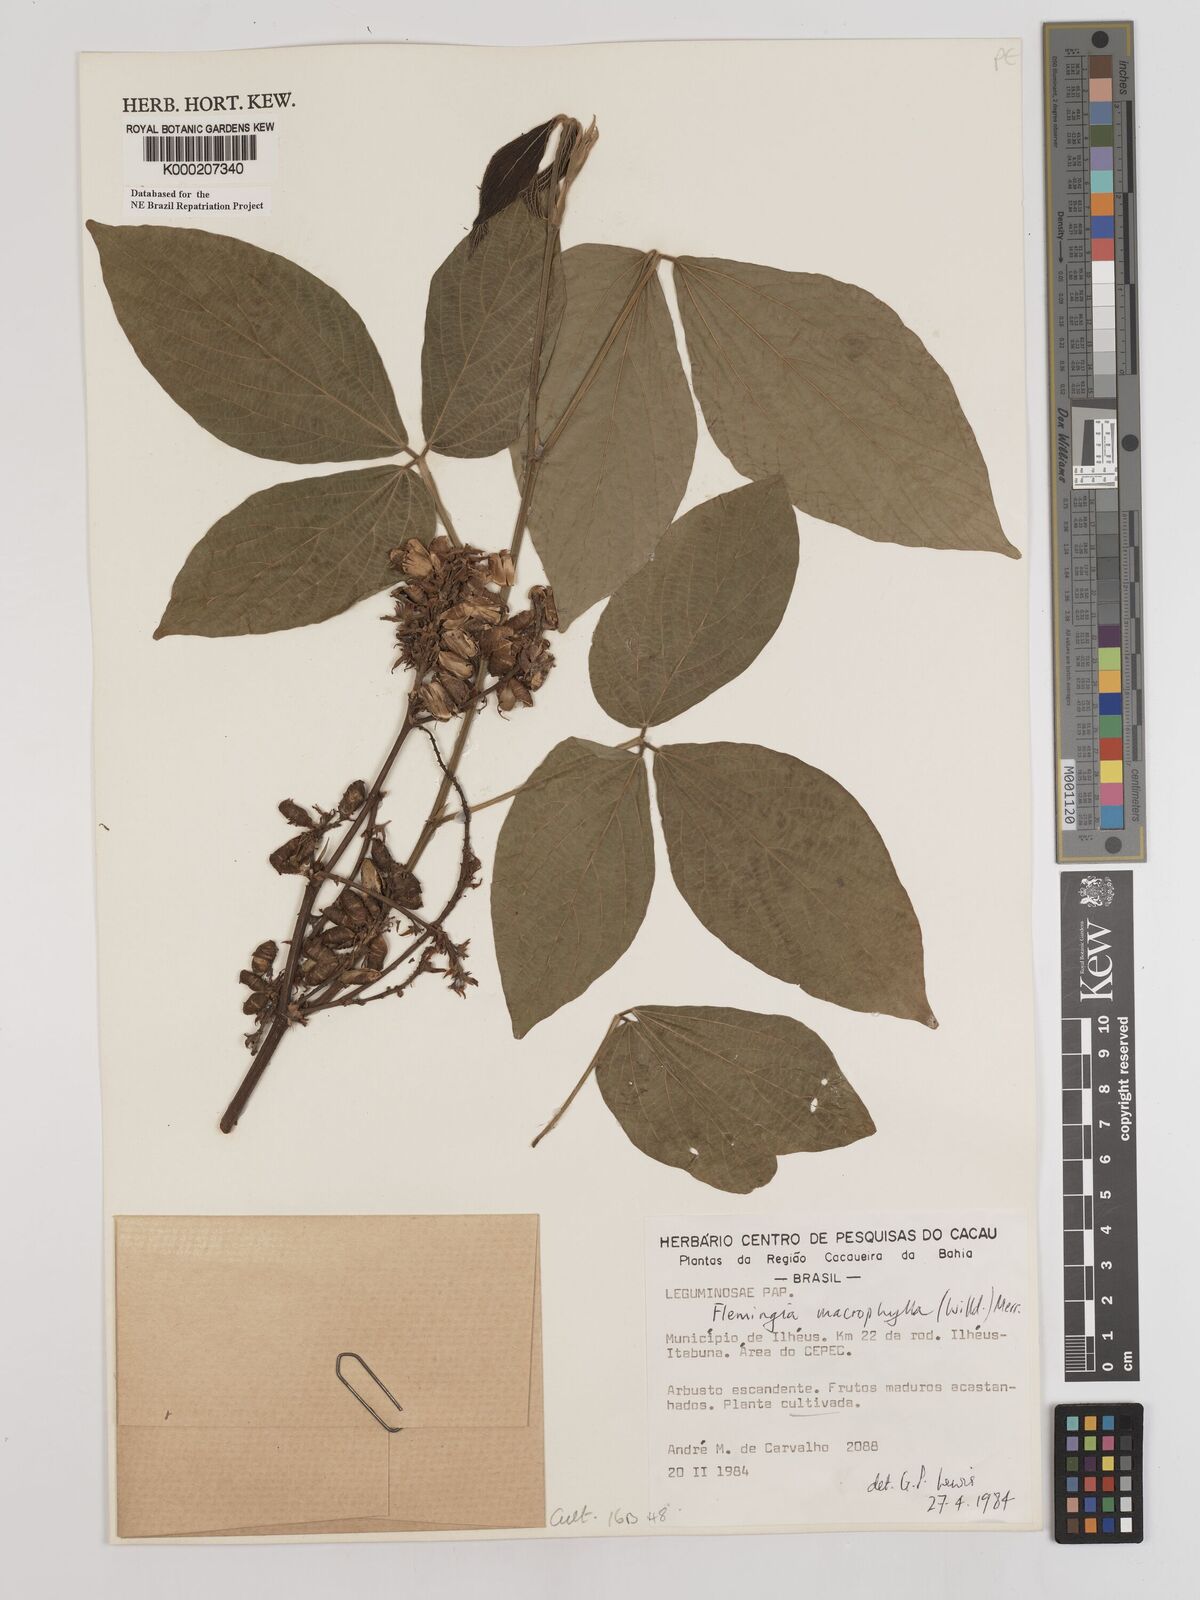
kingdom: Plantae
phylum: Tracheophyta
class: Magnoliopsida
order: Fabales
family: Fabaceae
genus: Flemingia
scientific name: Flemingia macrophylla
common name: Flemingia
